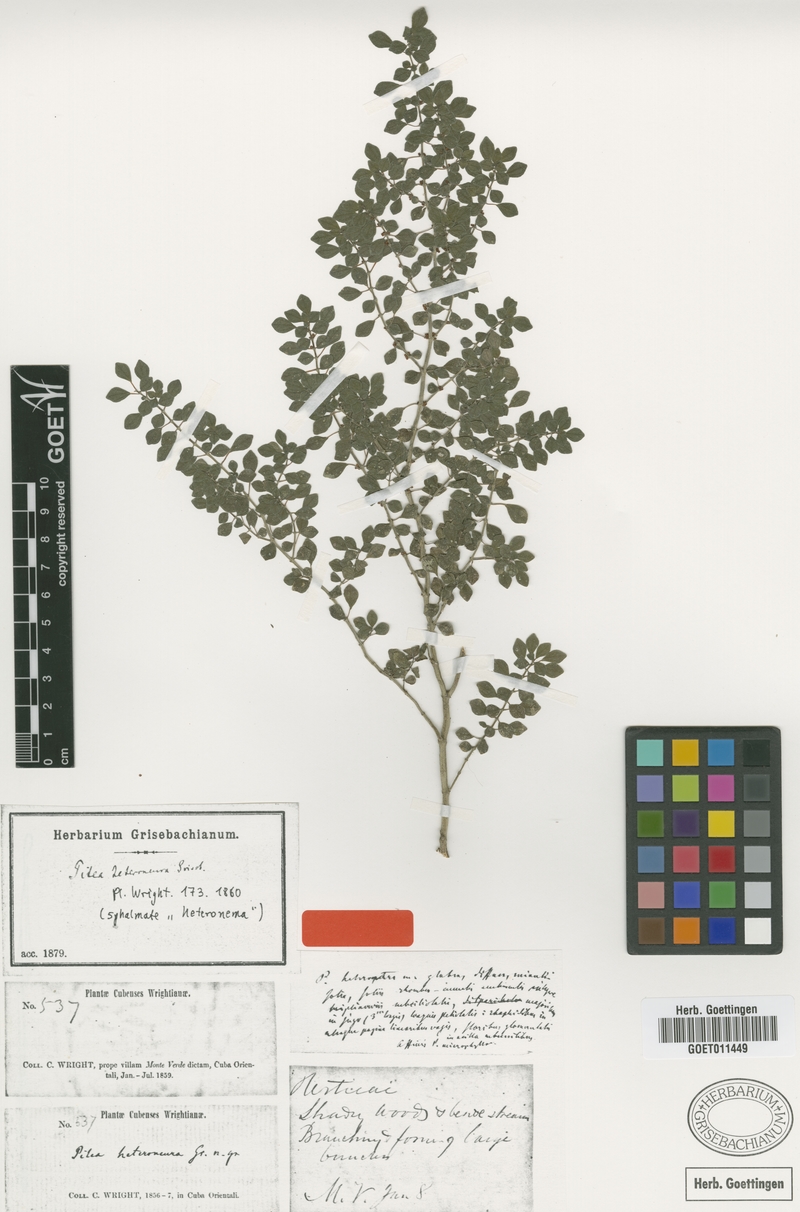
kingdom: Plantae
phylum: Tracheophyta
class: Magnoliopsida
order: Rosales
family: Urticaceae
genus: Pilea
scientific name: Pilea heteroneura
